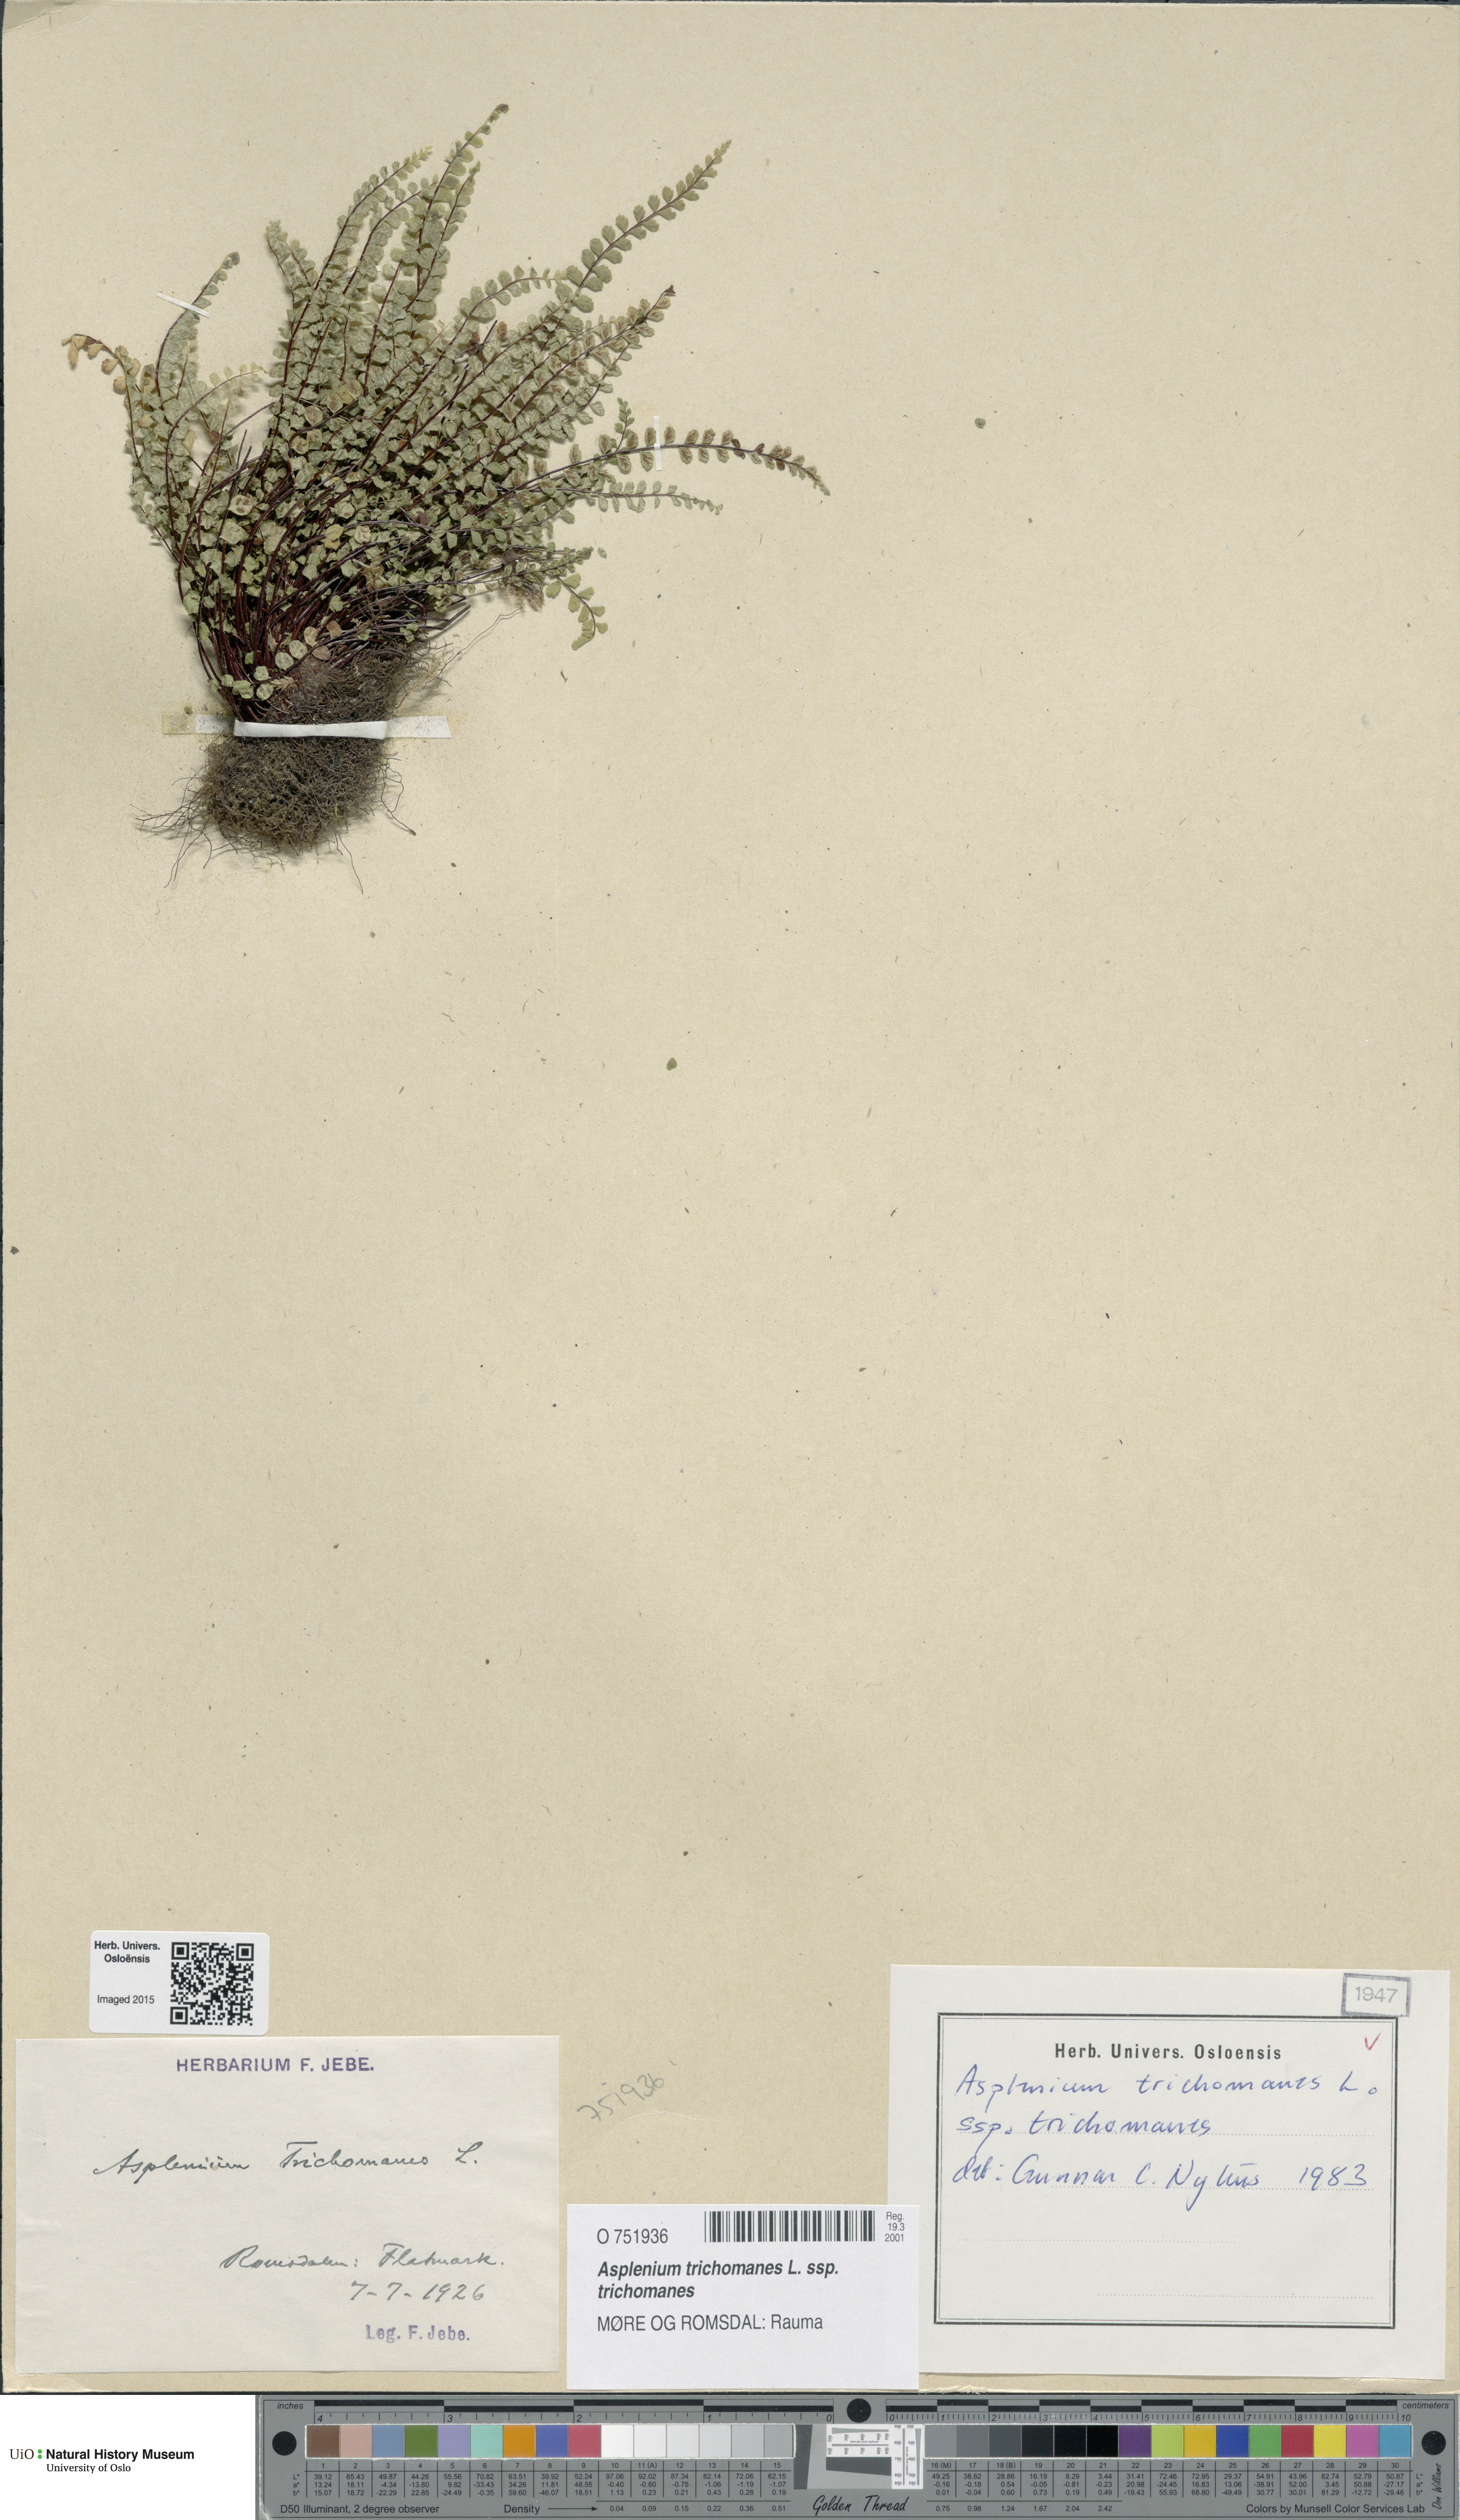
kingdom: Plantae
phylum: Tracheophyta
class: Polypodiopsida
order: Polypodiales
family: Aspleniaceae
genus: Asplenium
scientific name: Asplenium trichomanes
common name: Maidenhair spleenwort
